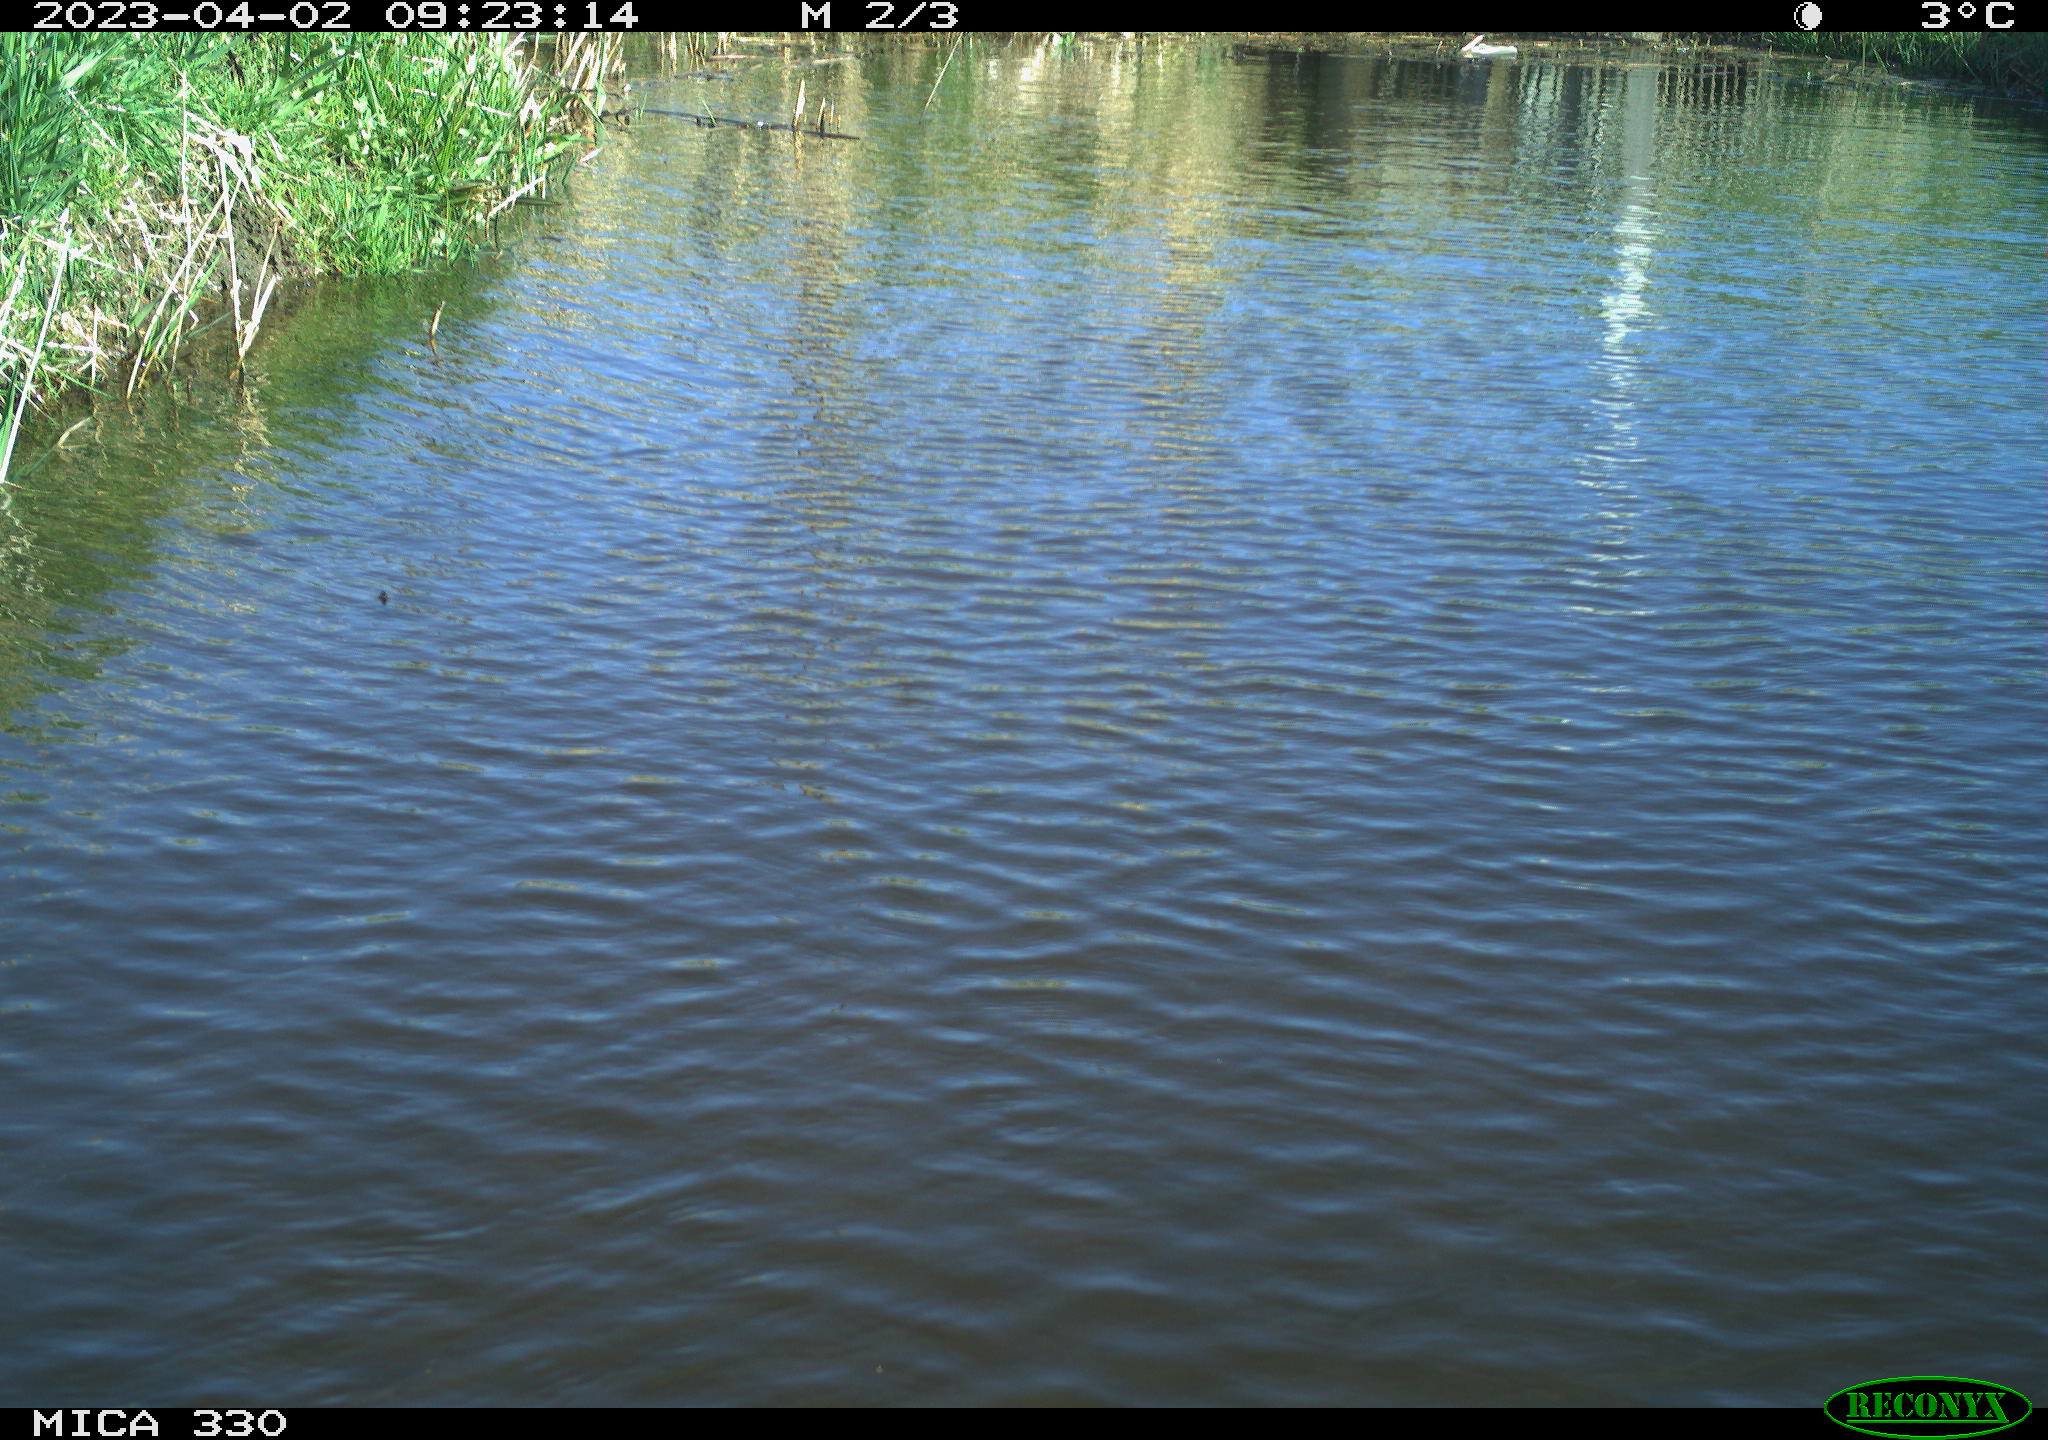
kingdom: Animalia
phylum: Chordata
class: Aves
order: Anseriformes
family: Anatidae
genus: Anas
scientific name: Anas
